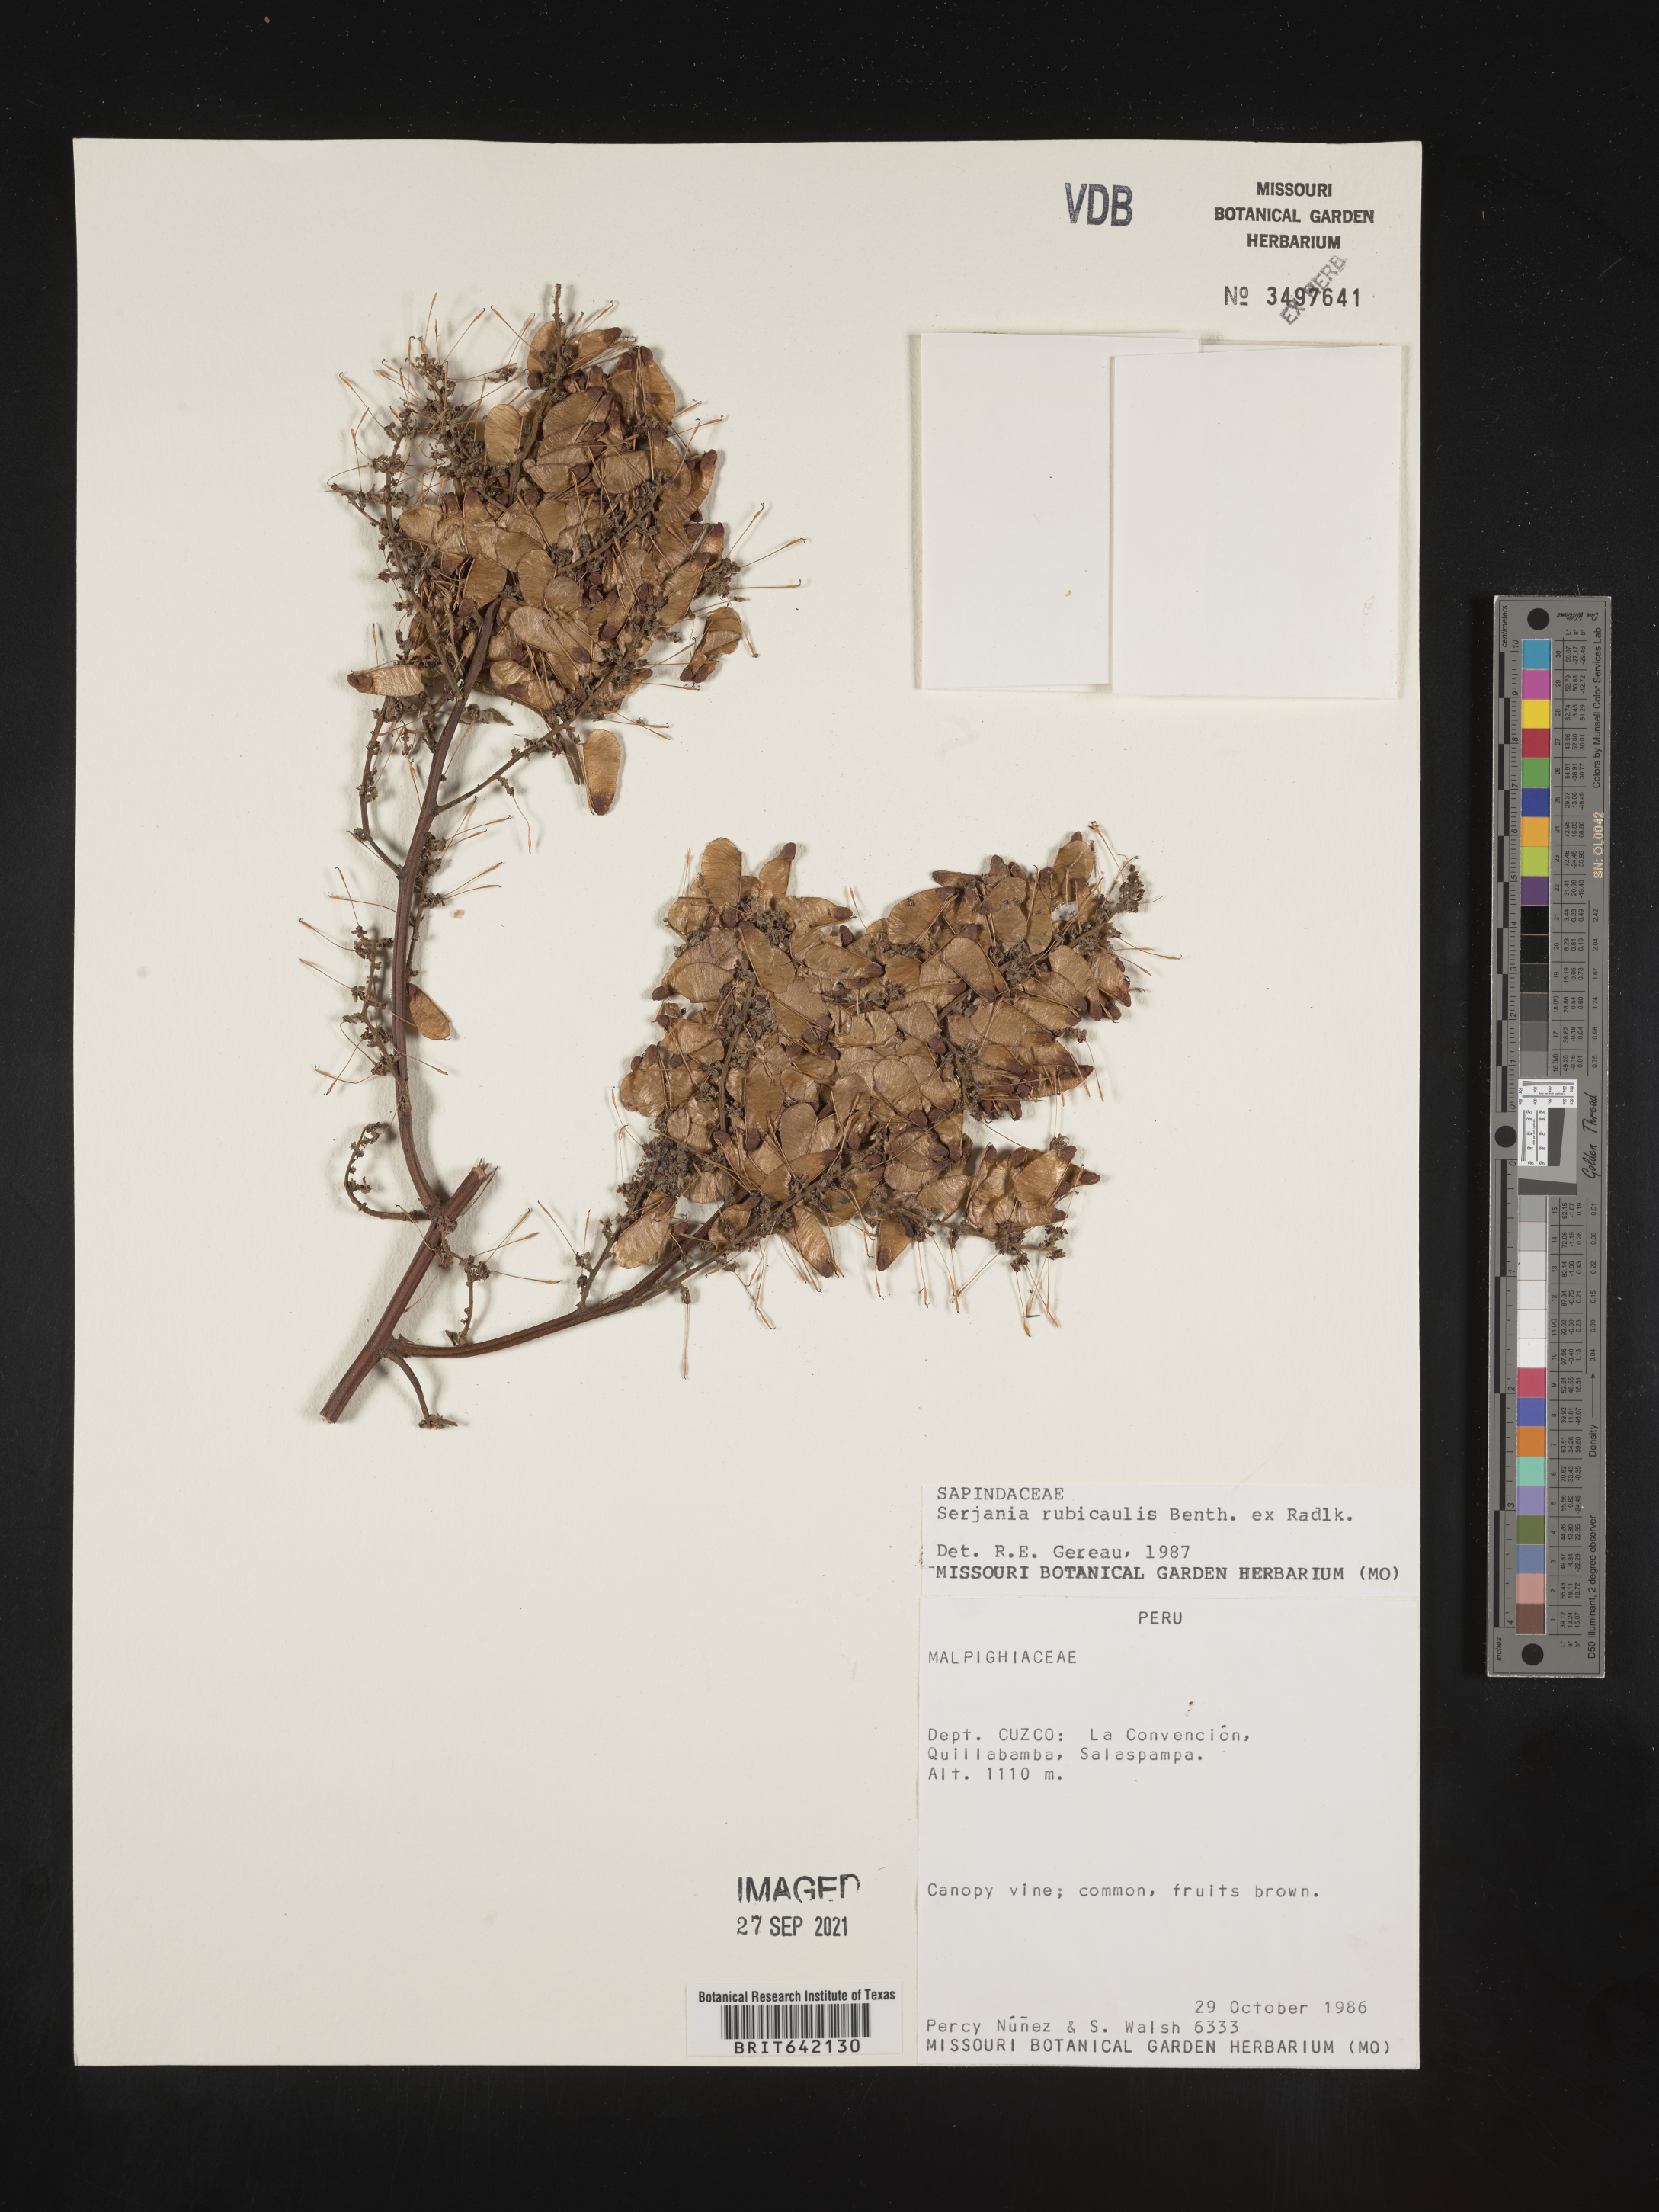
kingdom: Plantae
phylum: Tracheophyta
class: Magnoliopsida
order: Sapindales
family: Sapindaceae
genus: Serjania
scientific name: Serjania
